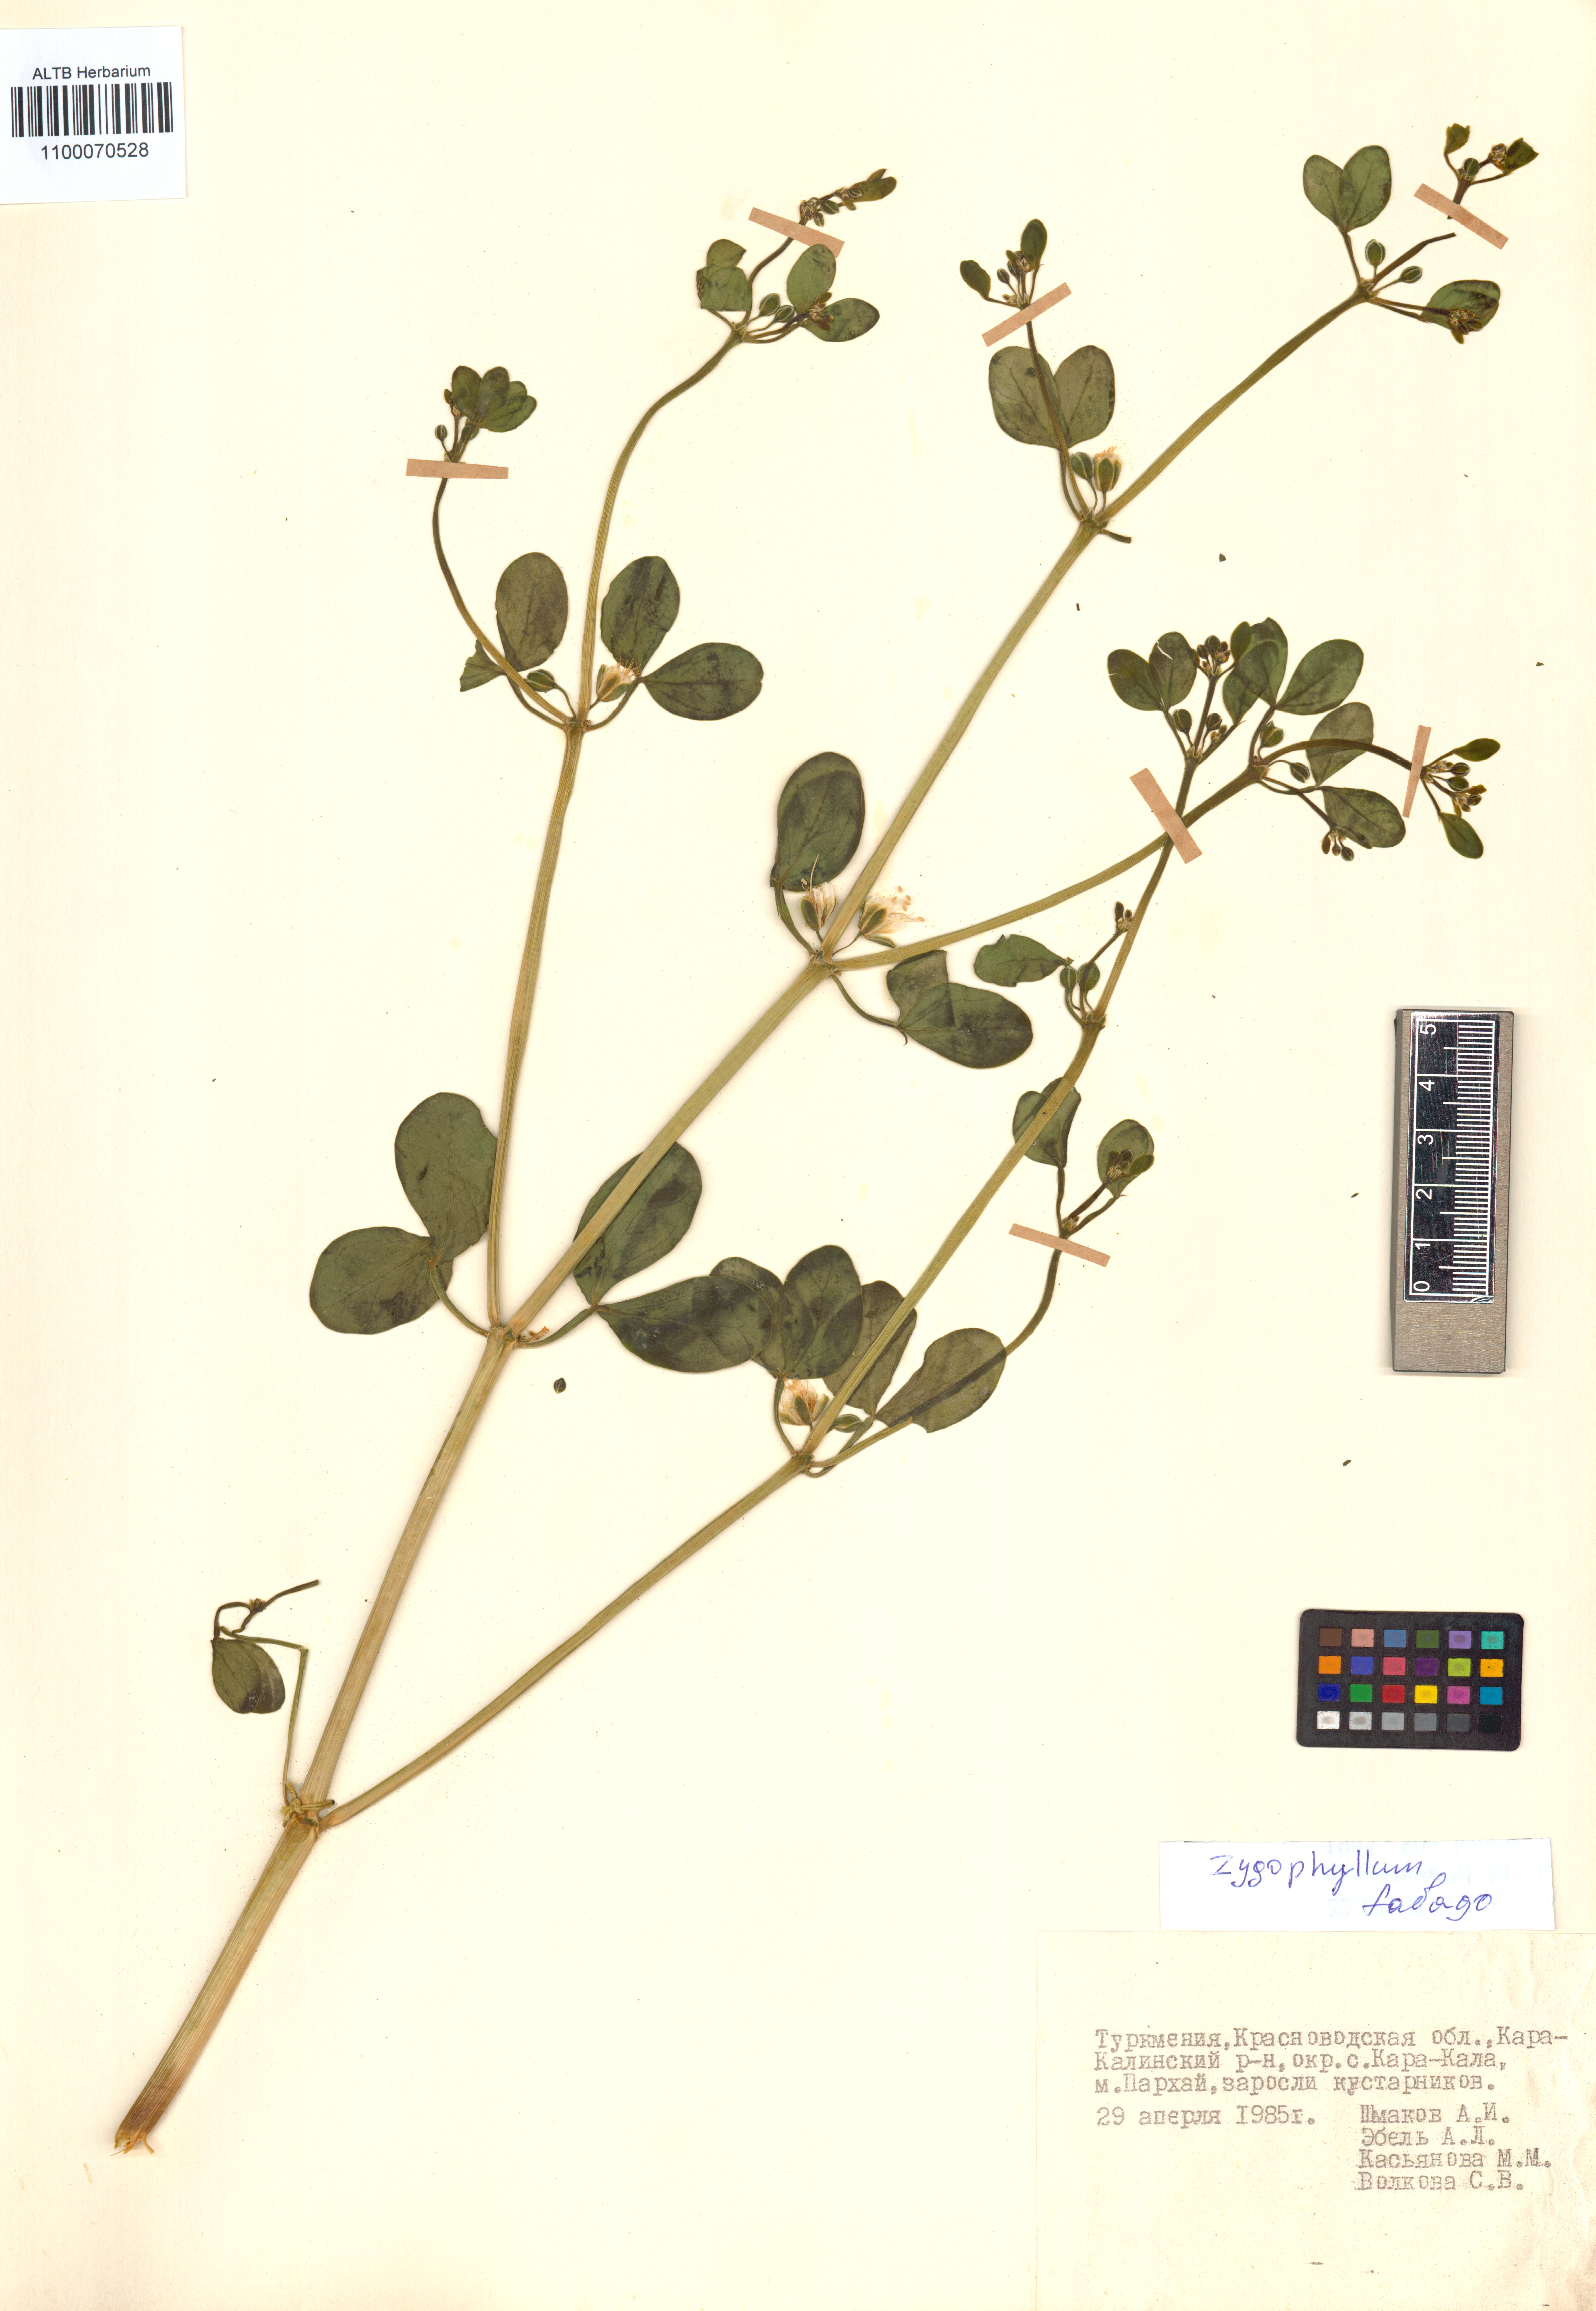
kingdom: Plantae
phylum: Tracheophyta
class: Magnoliopsida
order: Zygophyllales
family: Zygophyllaceae
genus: Zygophyllum
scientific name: Zygophyllum fabago
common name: Syrian beancaper
